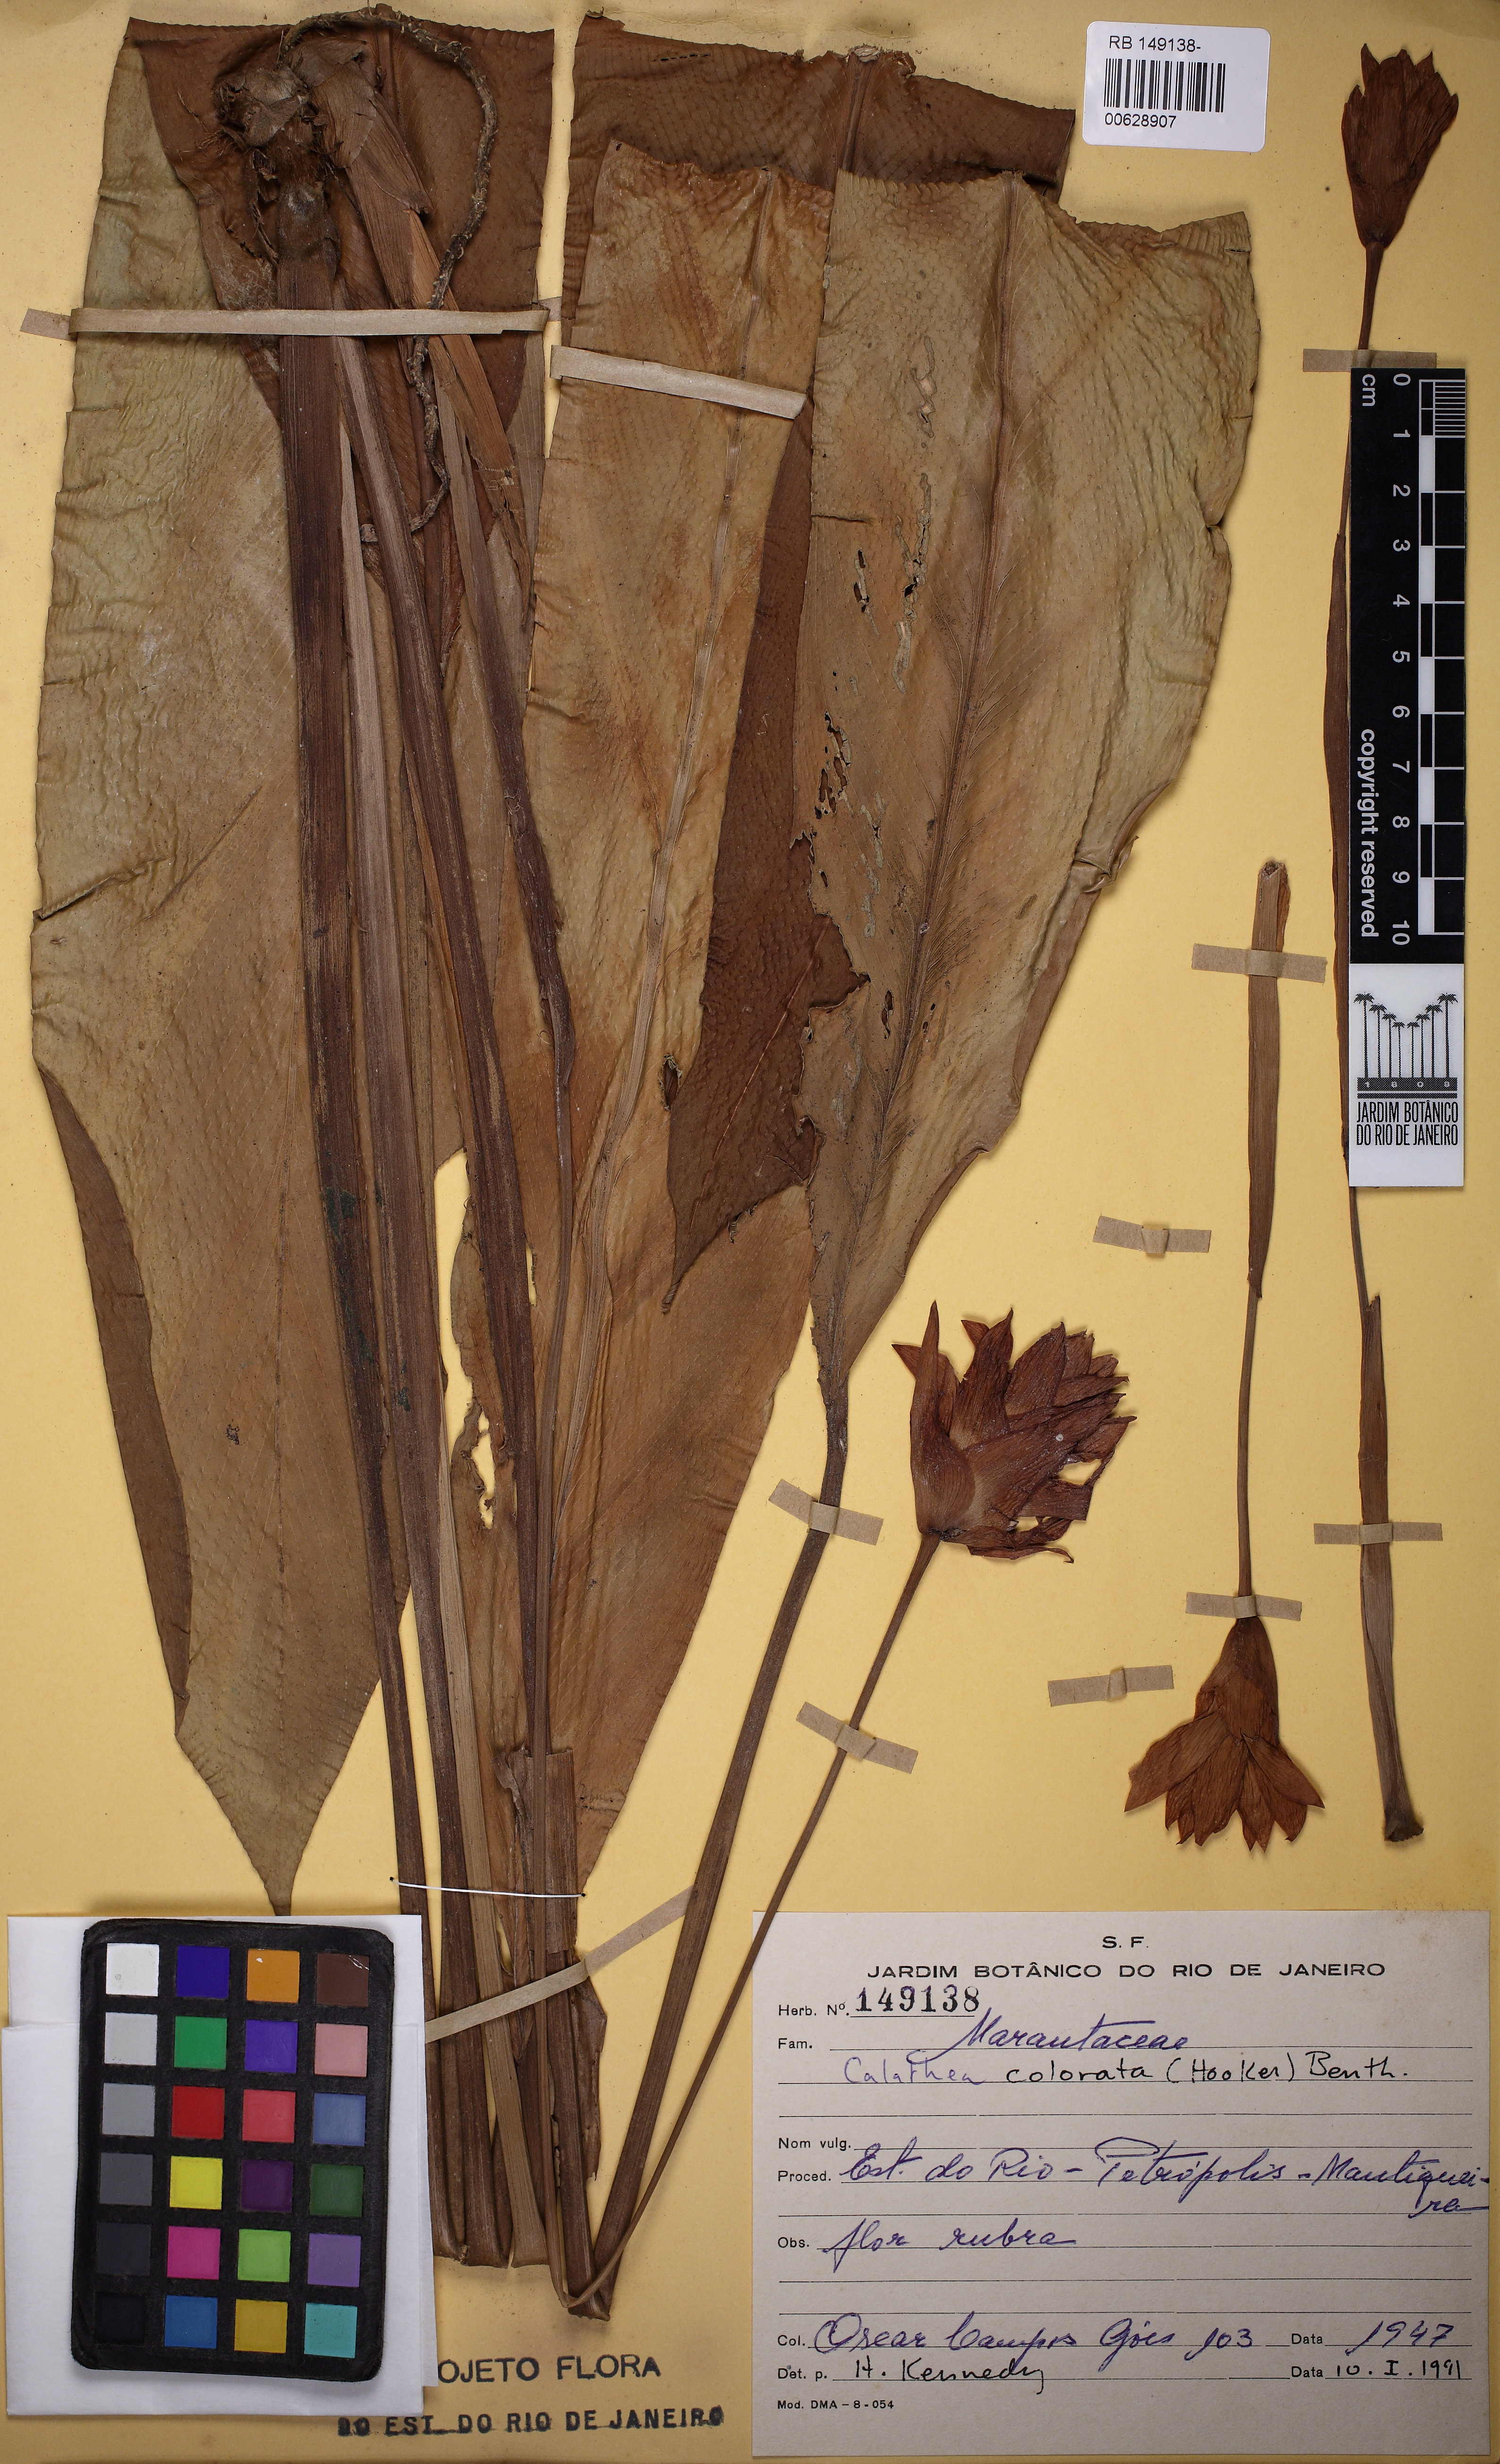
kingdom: Plantae
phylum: Tracheophyta
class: Liliopsida
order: Zingiberales
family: Marantaceae
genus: Goeppertia
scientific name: Goeppertia colorata
